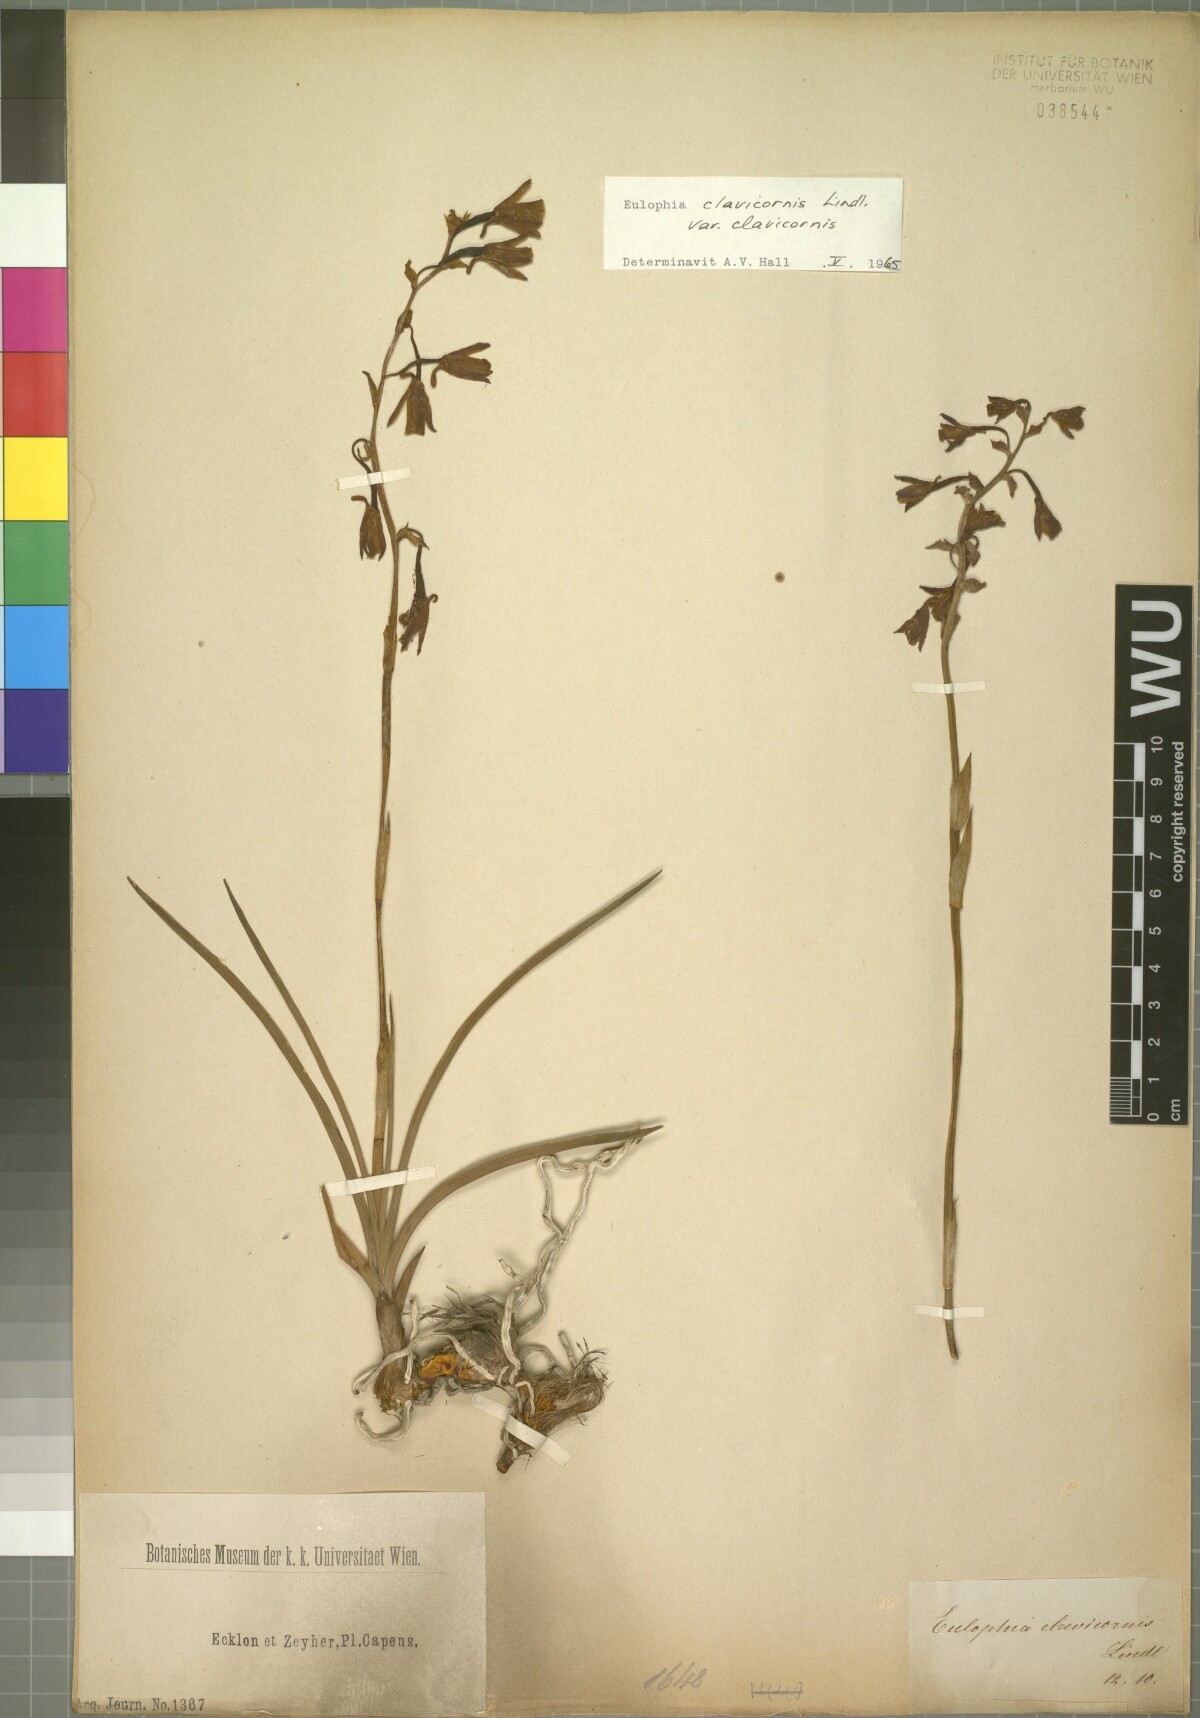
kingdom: Plantae
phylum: Tracheophyta
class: Liliopsida
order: Asparagales
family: Orchidaceae
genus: Eulophia
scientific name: Eulophia hians
